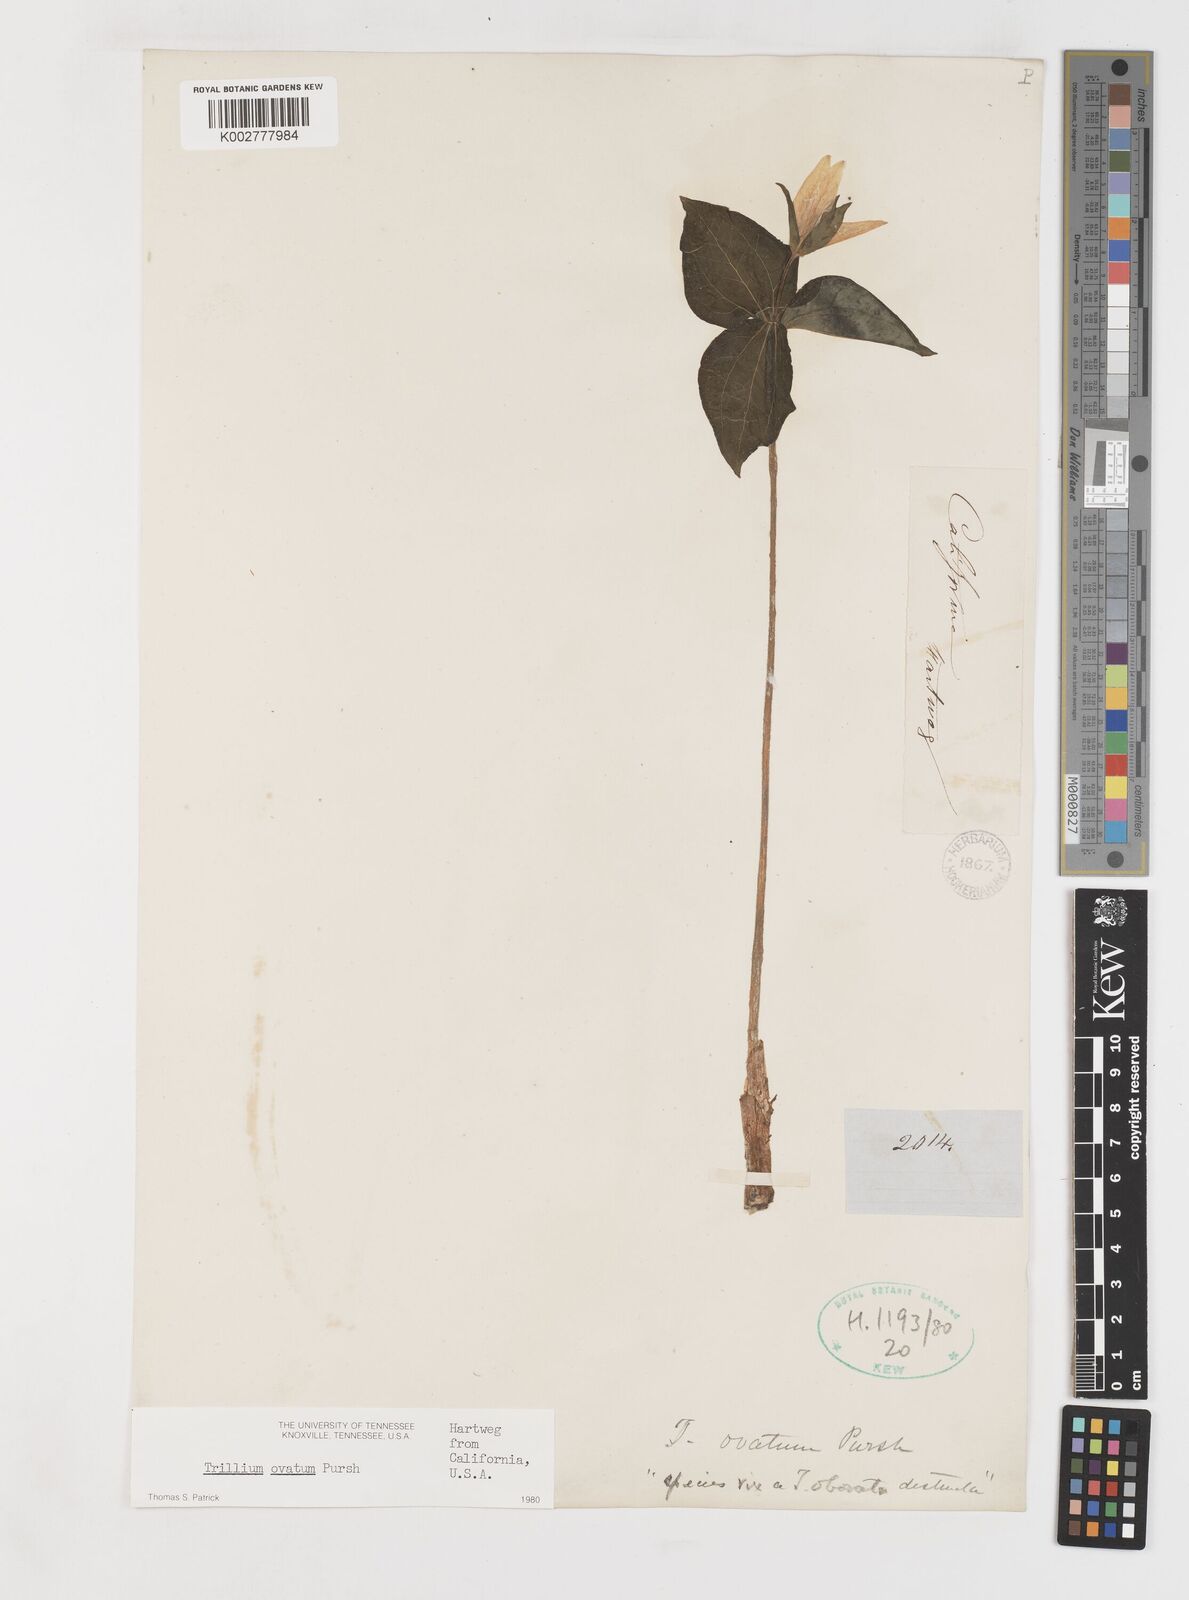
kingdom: Plantae
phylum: Tracheophyta
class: Liliopsida
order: Liliales
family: Melanthiaceae
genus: Trillium
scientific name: Trillium ovatum
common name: Pacific trillium
